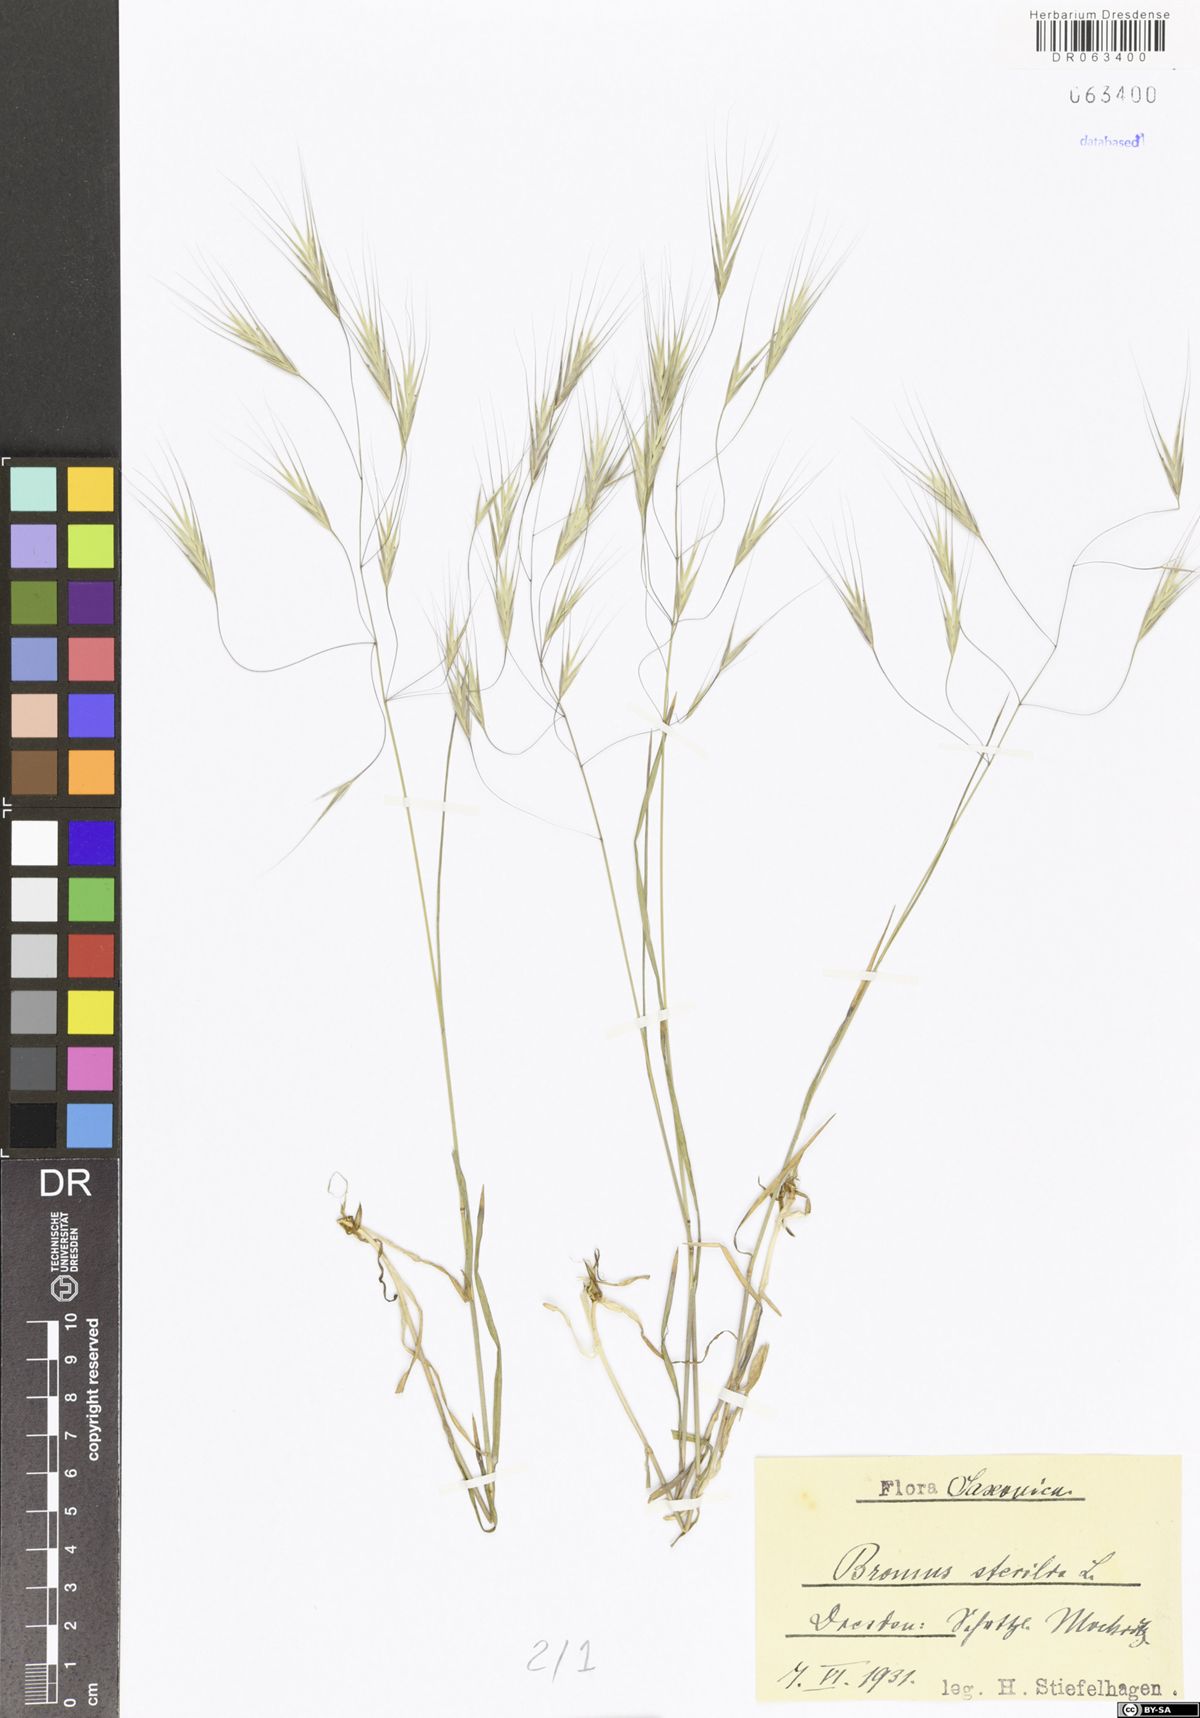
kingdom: Plantae
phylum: Tracheophyta
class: Liliopsida
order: Poales
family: Poaceae
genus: Bromus
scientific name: Bromus sterilis
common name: Poverty brome
